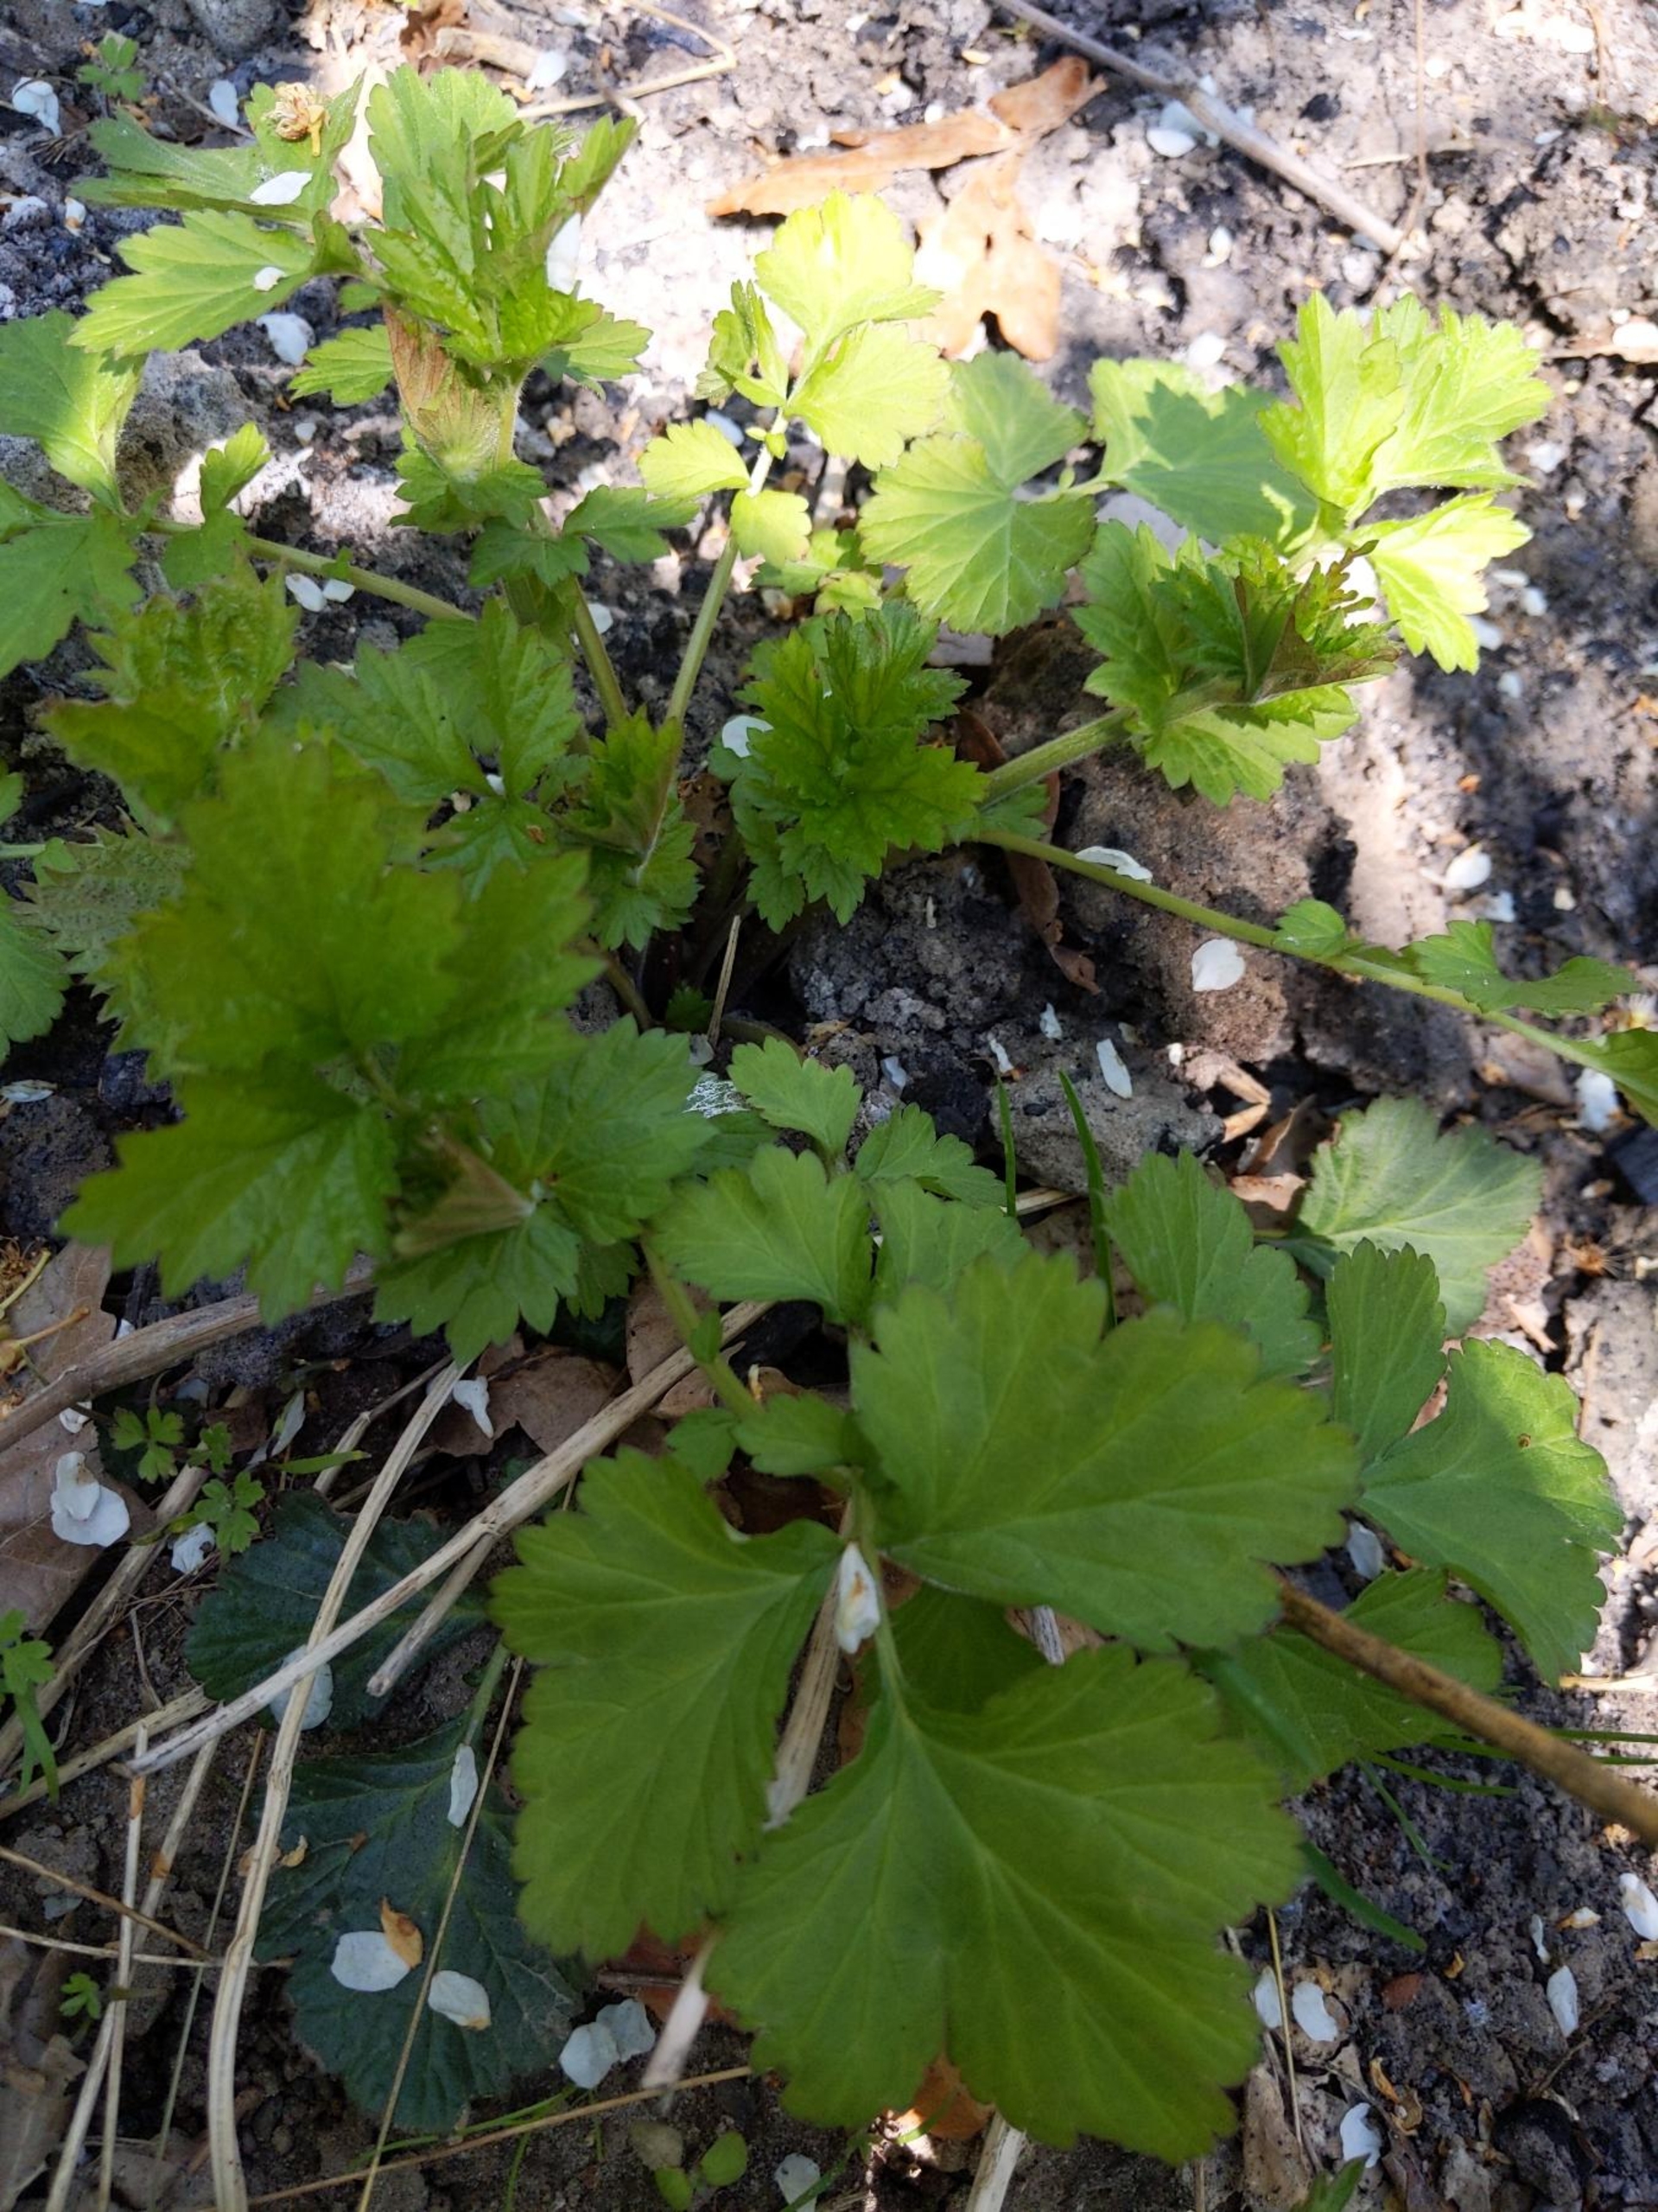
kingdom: Plantae
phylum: Tracheophyta
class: Magnoliopsida
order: Rosales
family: Rosaceae
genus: Geum
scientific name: Geum urbanum
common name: Feber-nellikerod
